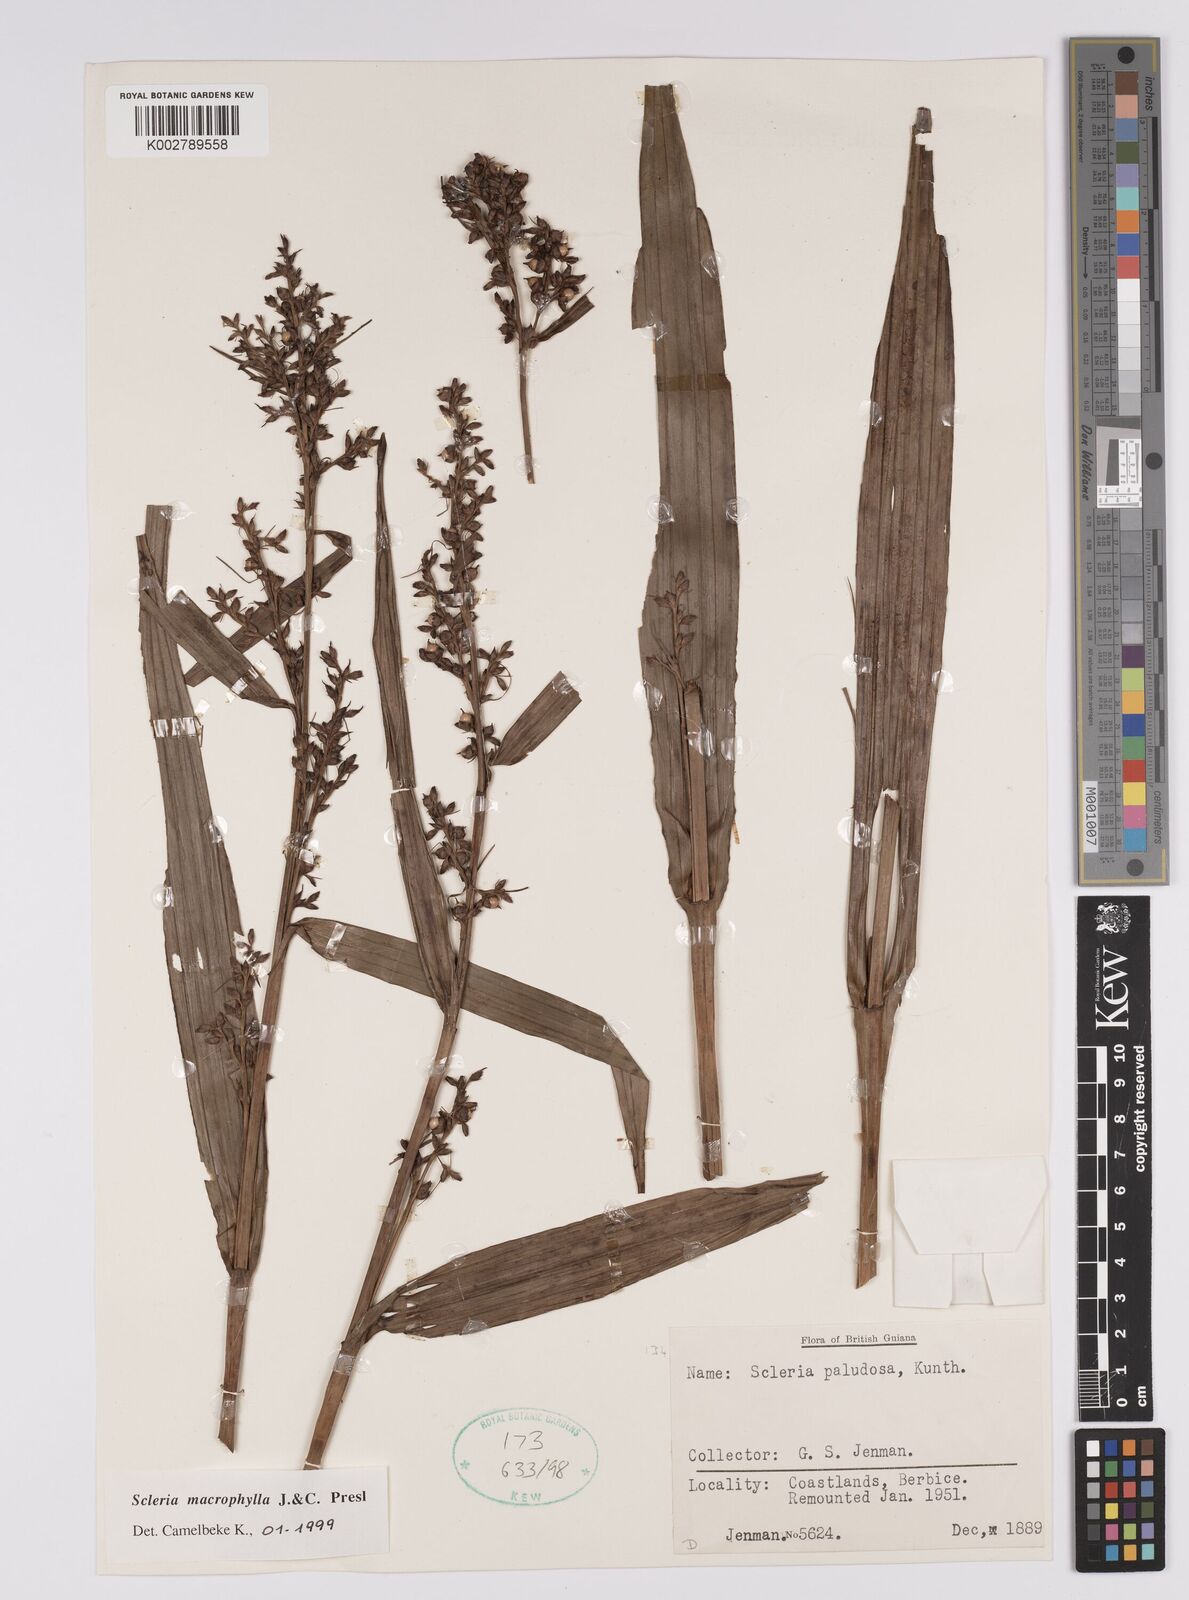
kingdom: Plantae
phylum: Tracheophyta
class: Liliopsida
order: Poales
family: Cyperaceae
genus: Scleria
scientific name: Scleria macrophylla
